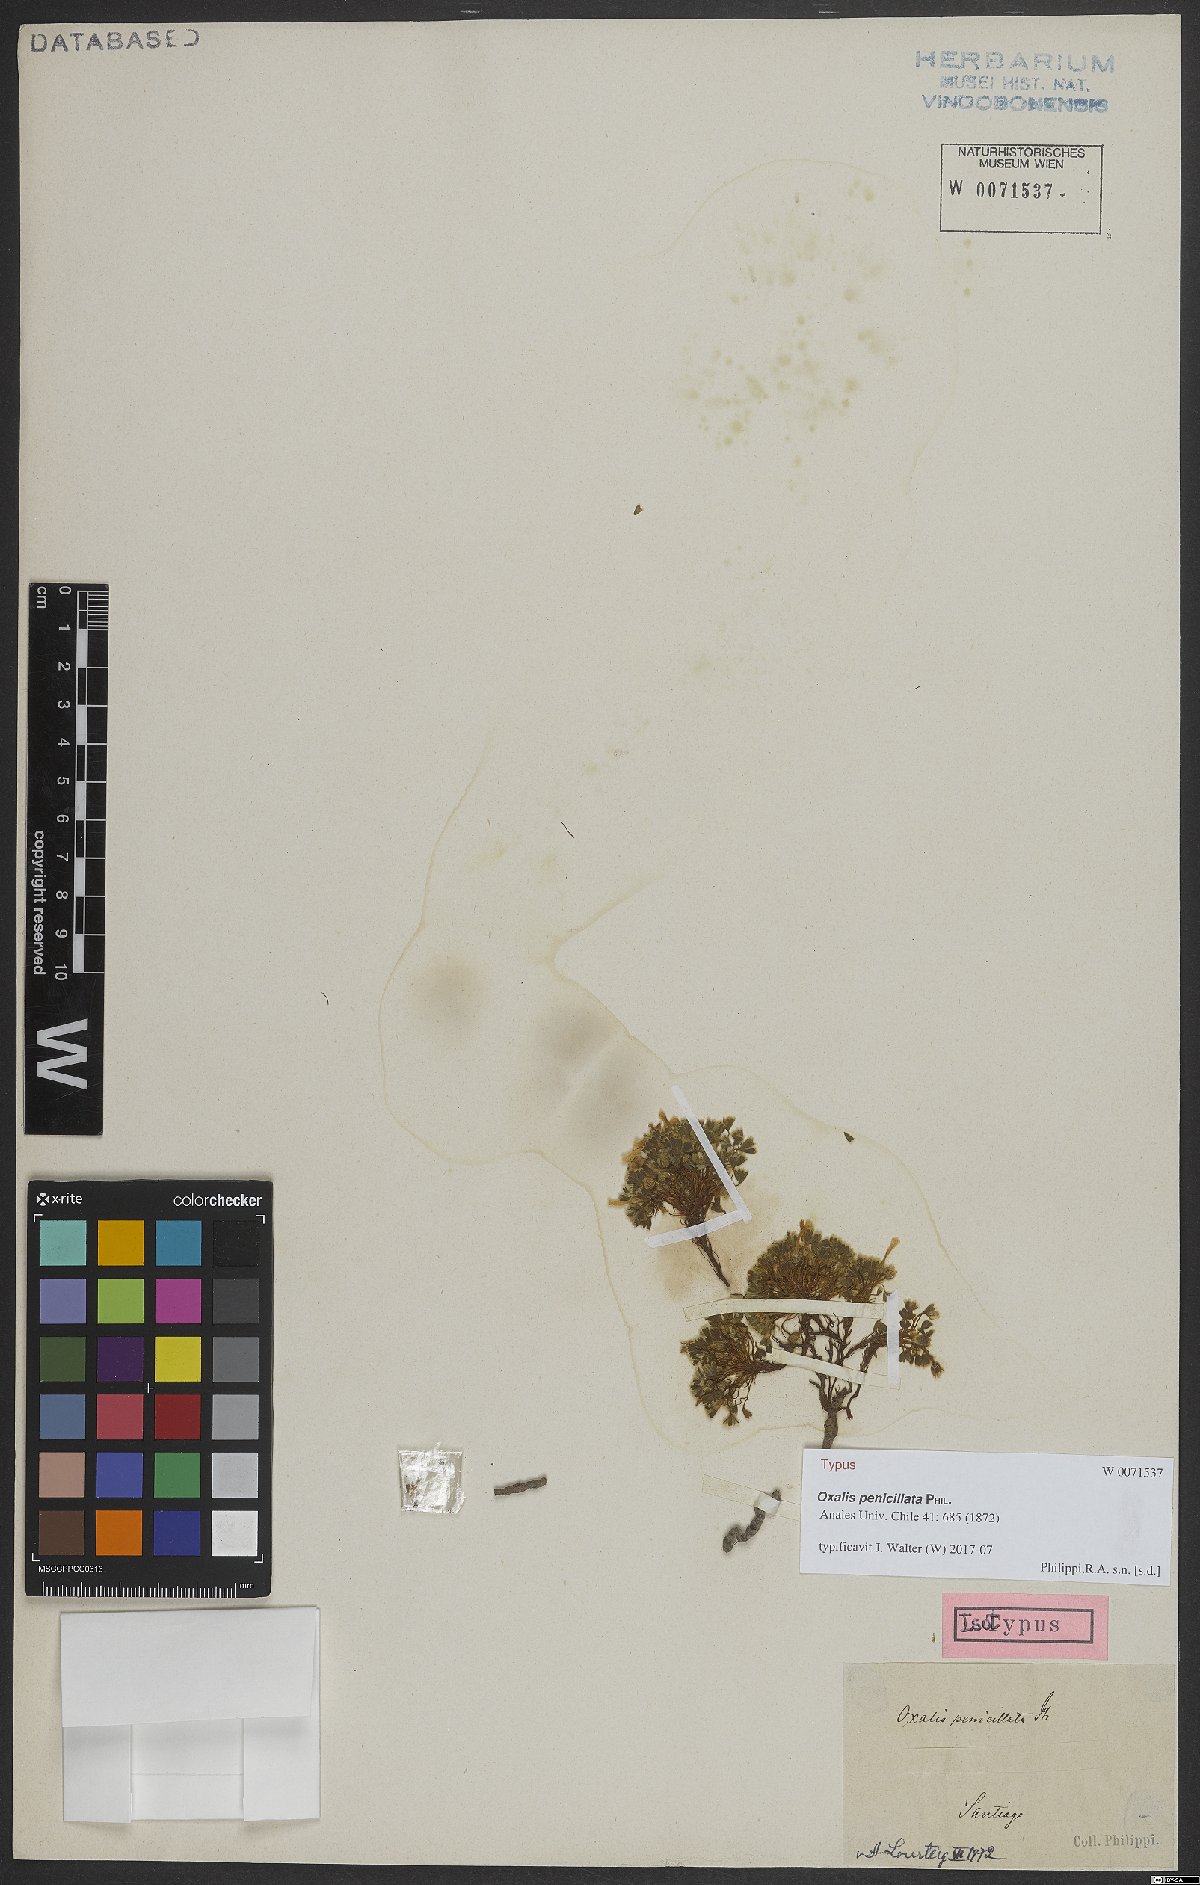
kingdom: Plantae
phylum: Tracheophyta
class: Magnoliopsida
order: Oxalidales
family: Oxalidaceae
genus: Oxalis
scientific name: Oxalis penicillata
